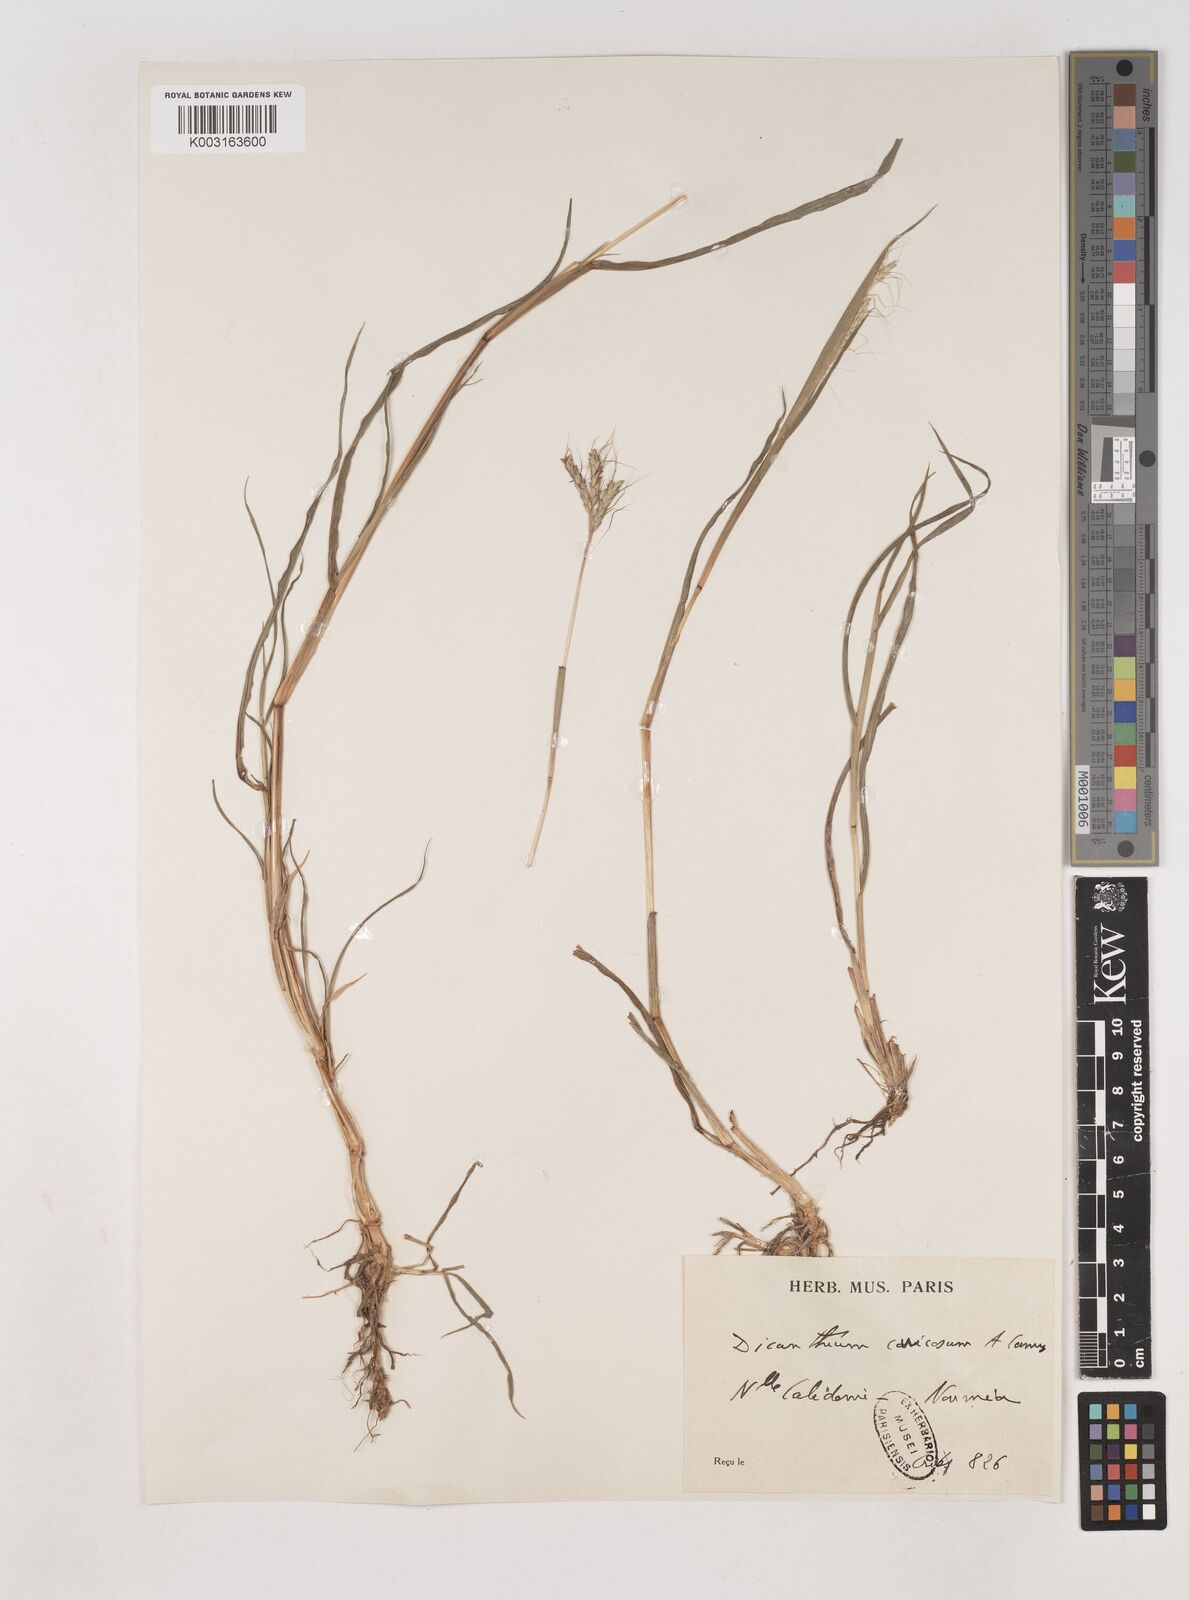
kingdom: Plantae
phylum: Tracheophyta
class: Liliopsida
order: Poales
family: Poaceae
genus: Dichanthium
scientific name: Dichanthium aristatum
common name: Angleton bluestem
